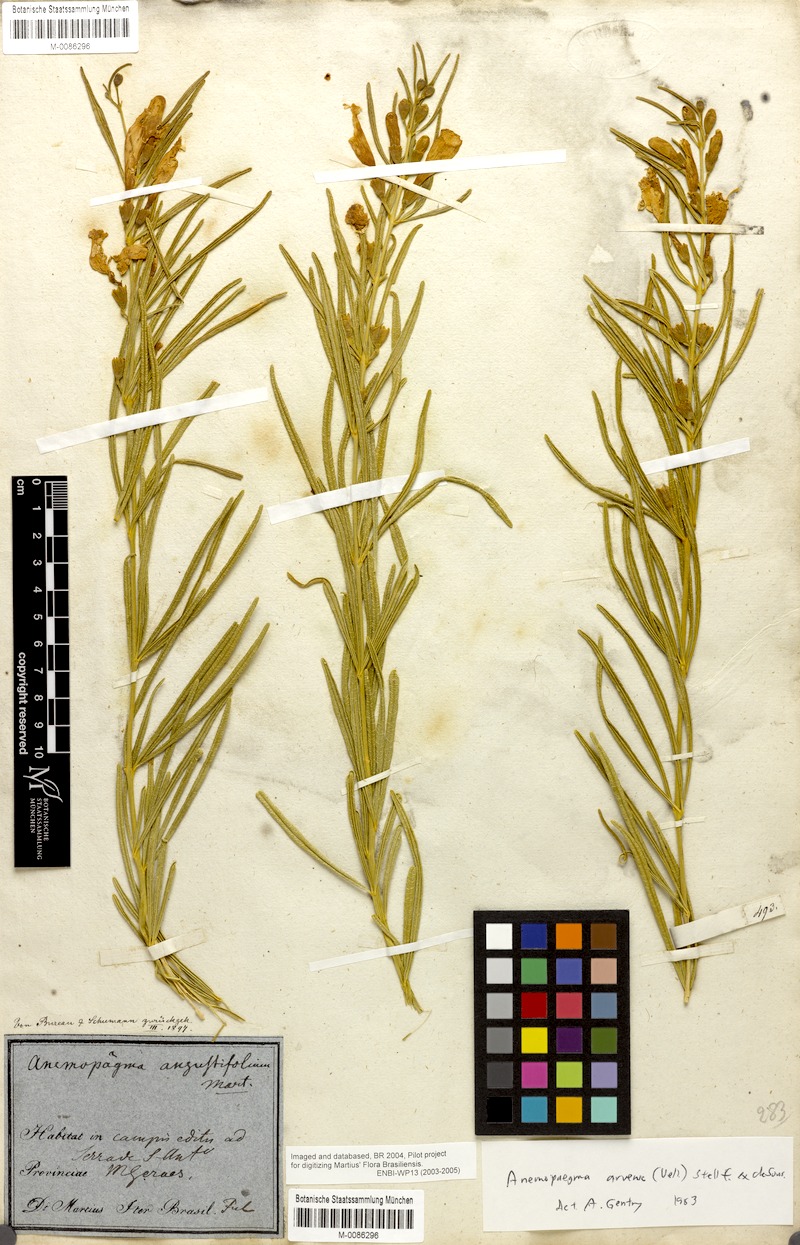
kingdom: Plantae
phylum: Tracheophyta
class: Magnoliopsida
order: Lamiales
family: Bignoniaceae
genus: Anemopaegma
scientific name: Anemopaegma arvense
